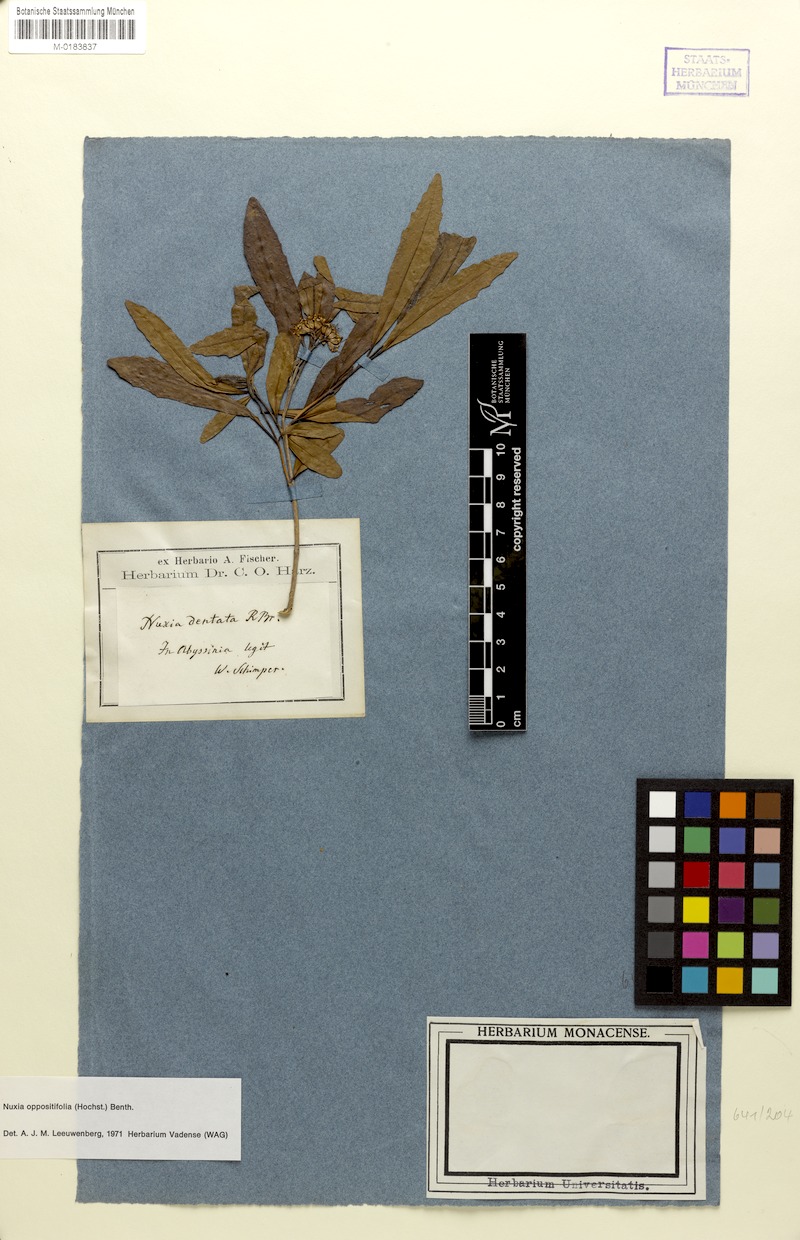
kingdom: Plantae
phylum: Tracheophyta
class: Magnoliopsida
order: Lamiales
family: Stilbaceae
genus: Nuxia
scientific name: Nuxia oppositifolia
